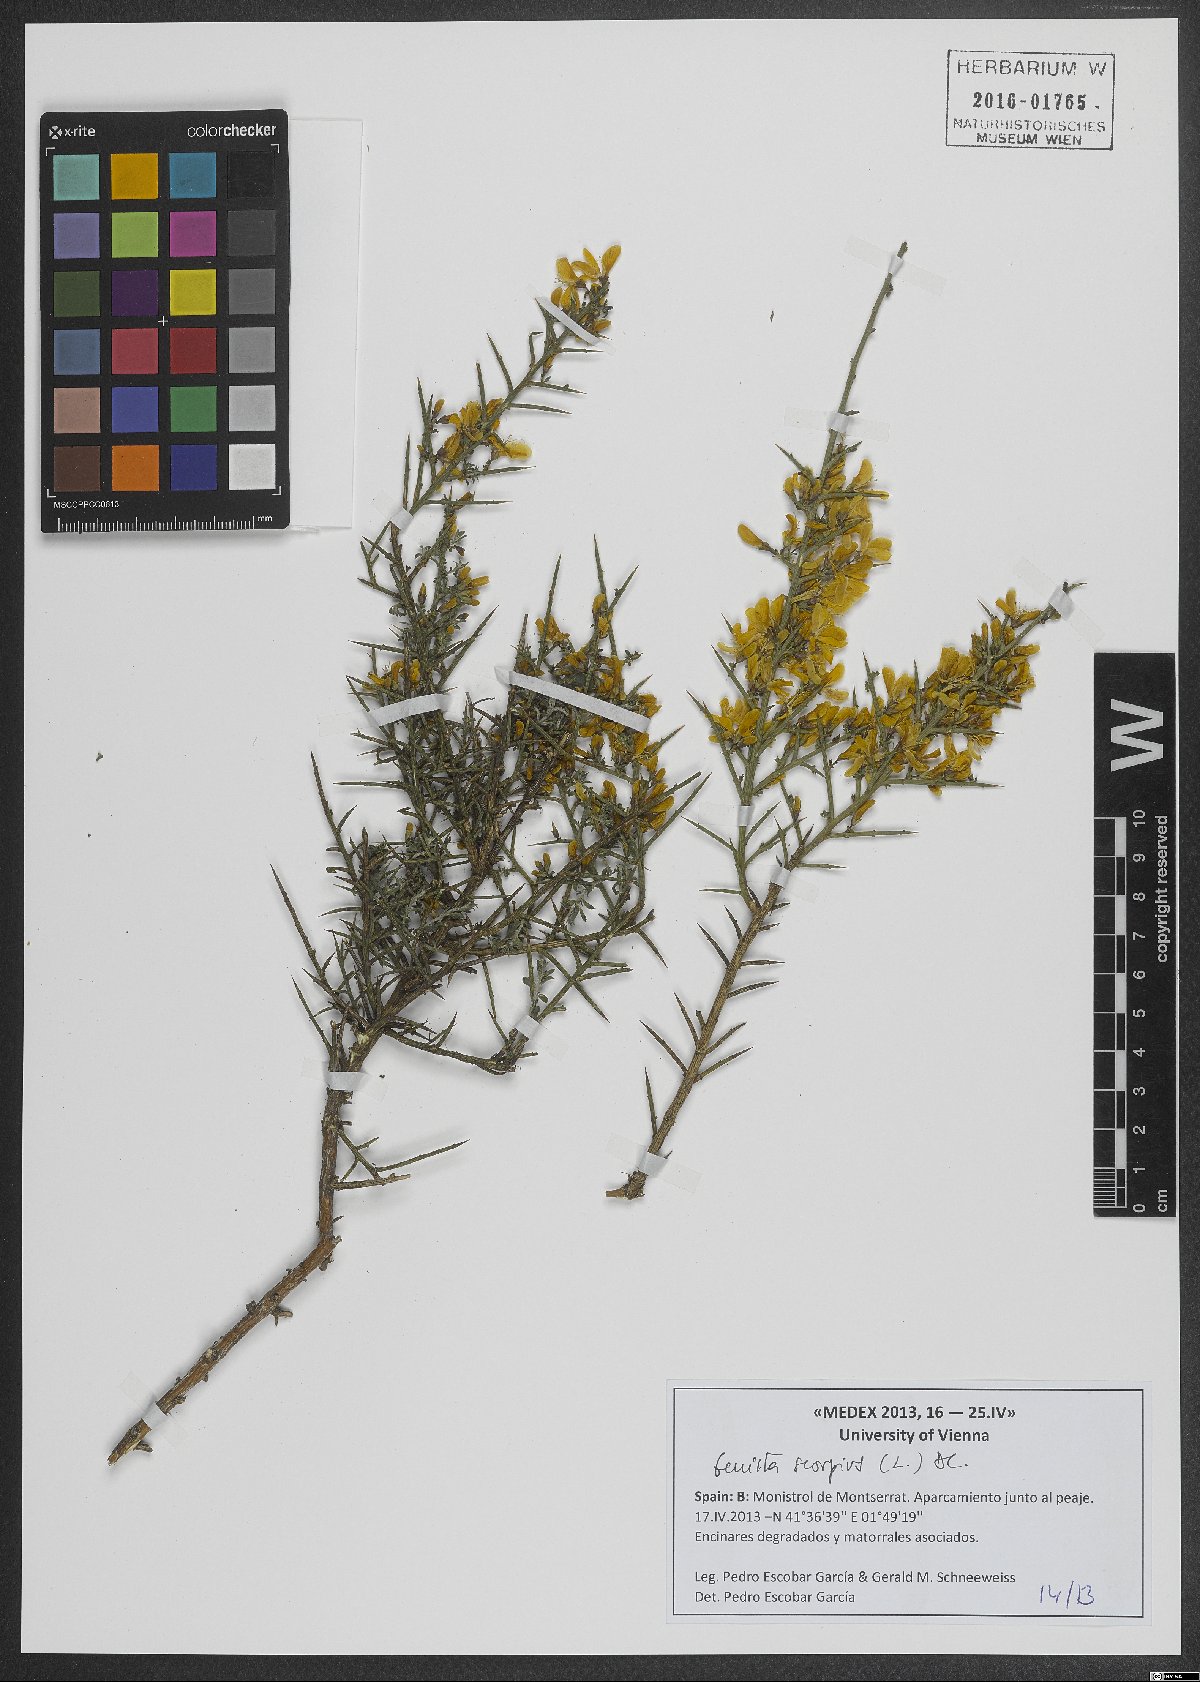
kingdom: Plantae
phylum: Tracheophyta
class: Magnoliopsida
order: Fabales
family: Fabaceae
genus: Genista
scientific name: Genista scorpius
